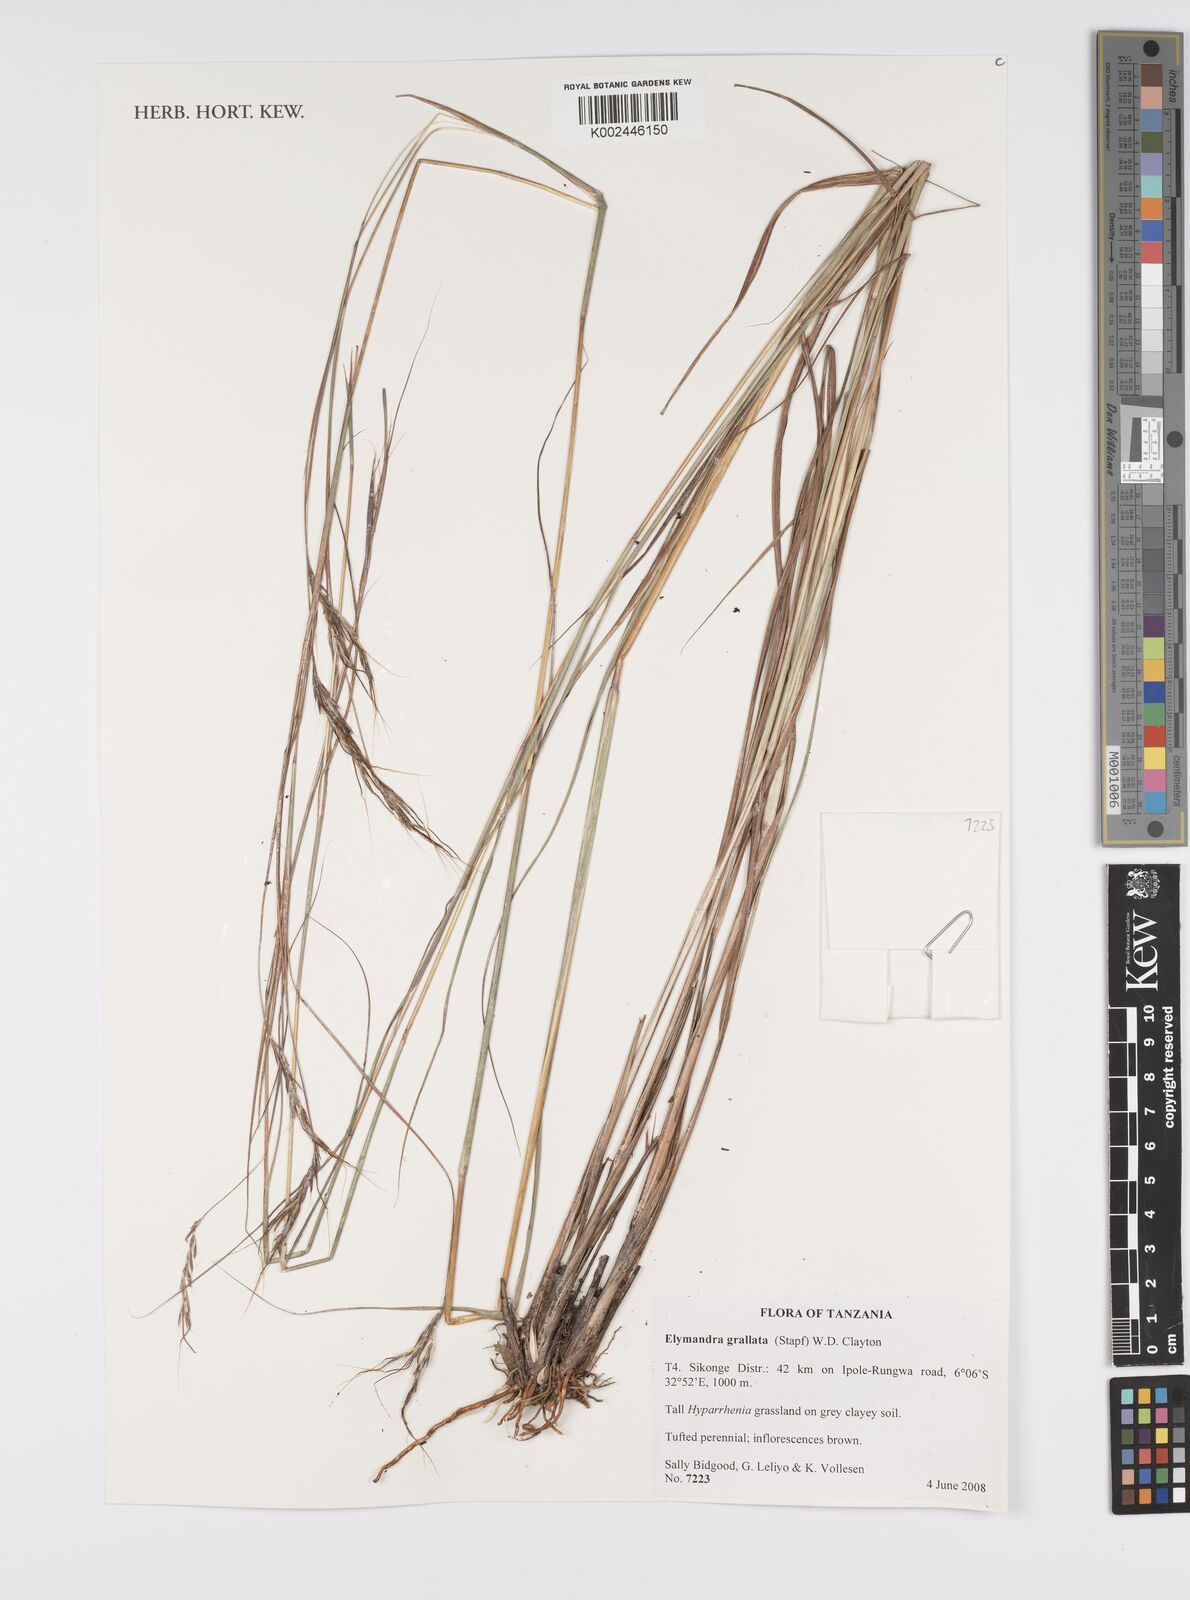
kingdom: Plantae
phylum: Tracheophyta
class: Liliopsida
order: Poales
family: Poaceae
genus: Elymandra
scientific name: Elymandra grallata
